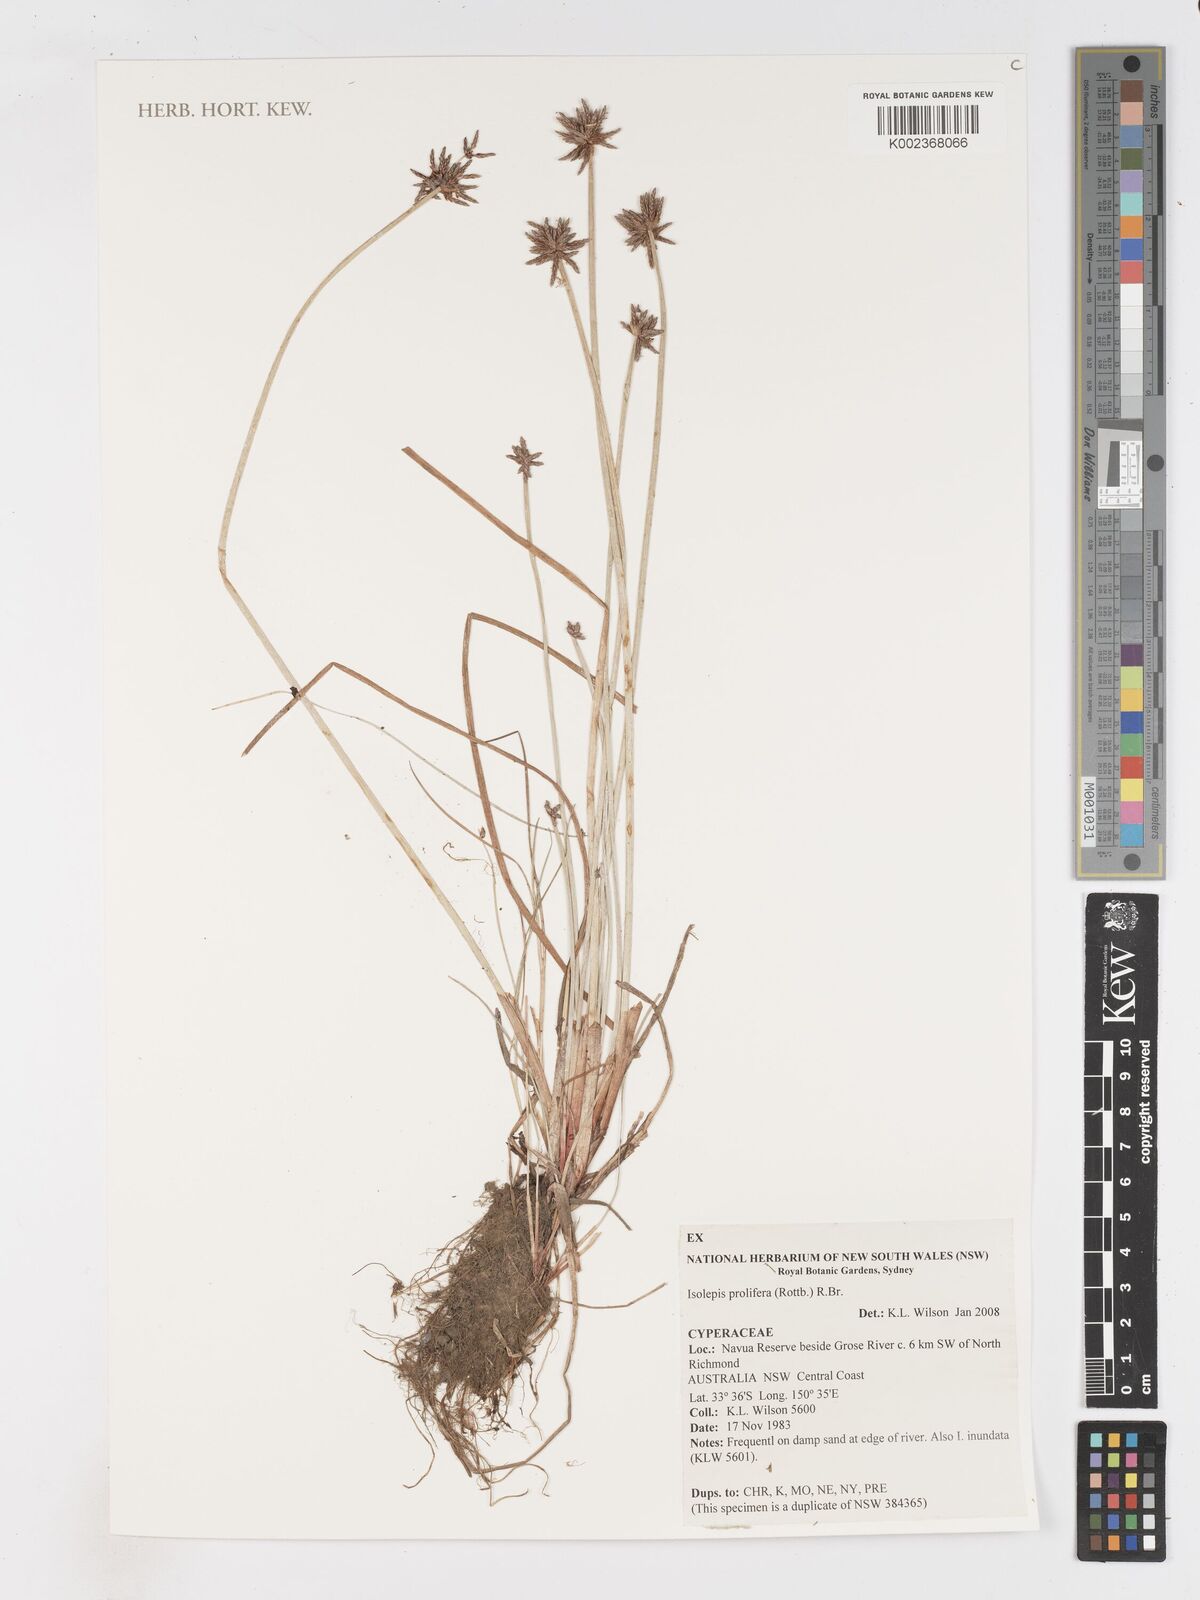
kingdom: Plantae
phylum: Tracheophyta
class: Liliopsida
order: Poales
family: Cyperaceae
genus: Isolepis
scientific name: Isolepis prolifera
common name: Proliferating bulrush
